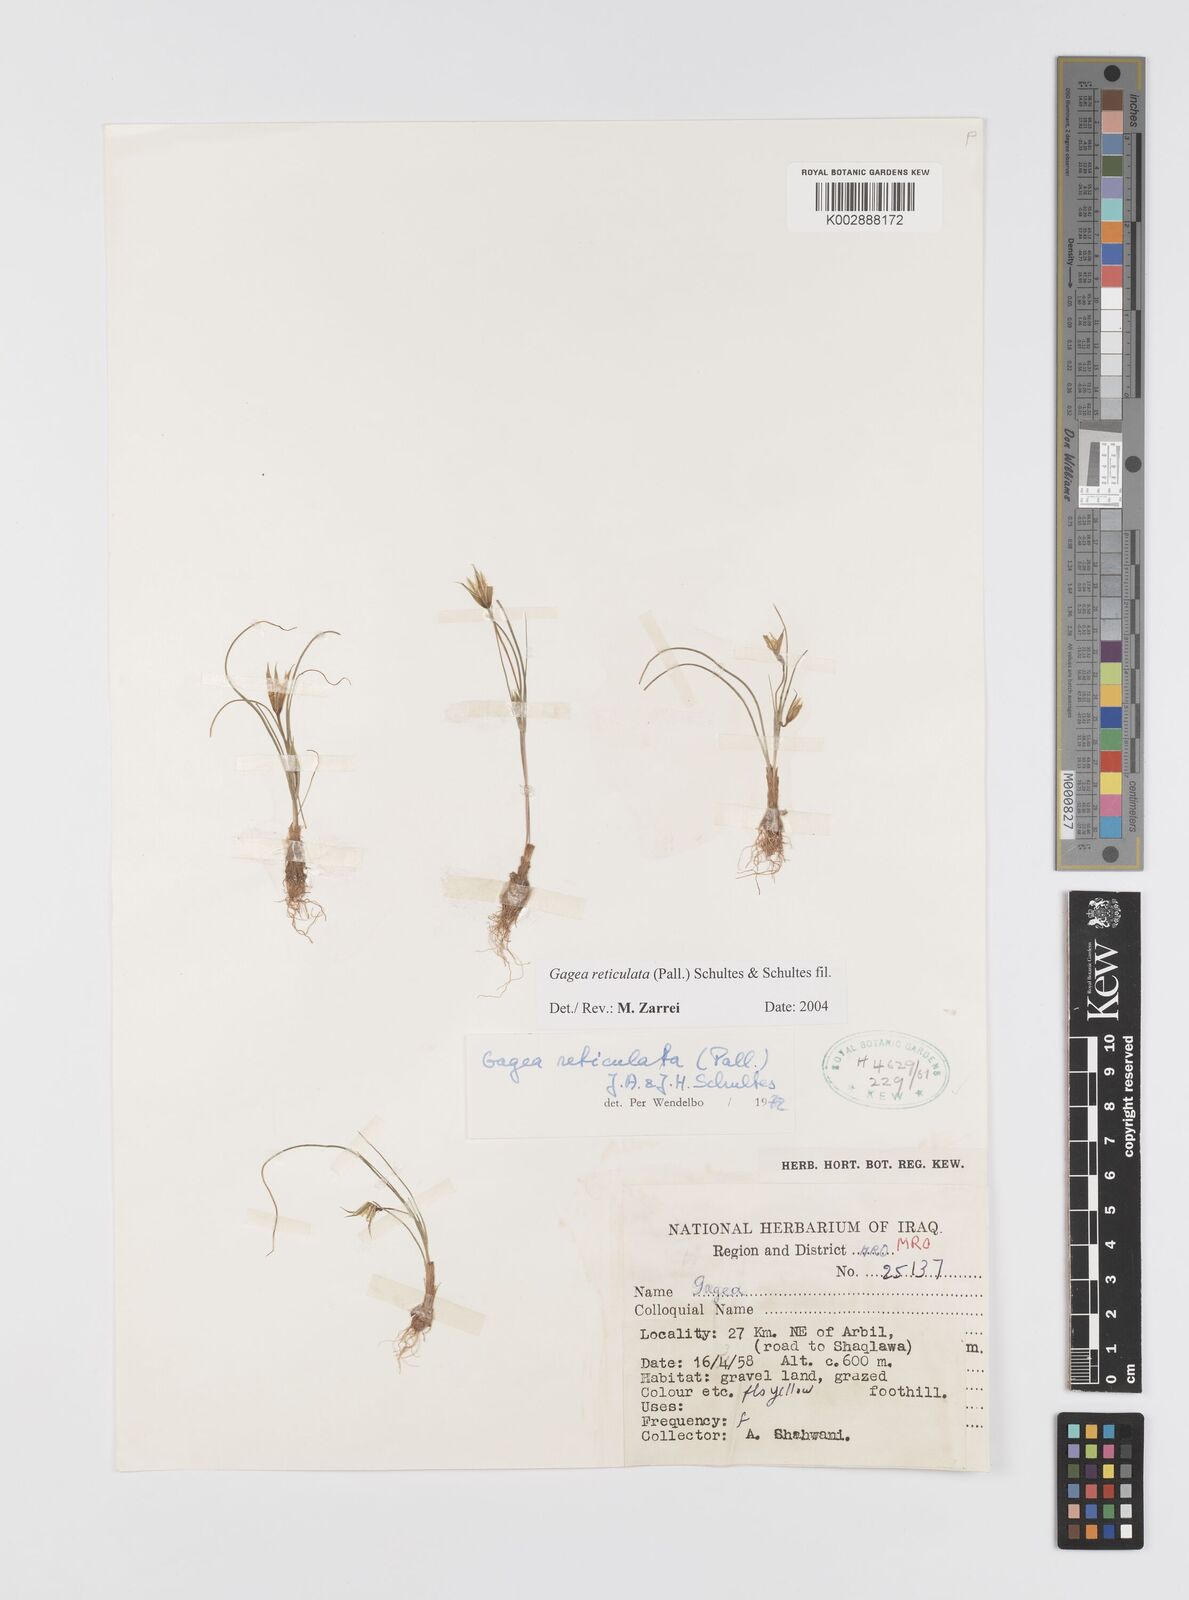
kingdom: Plantae
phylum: Tracheophyta
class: Liliopsida
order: Liliales
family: Liliaceae
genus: Gagea
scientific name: Gagea reticulata
